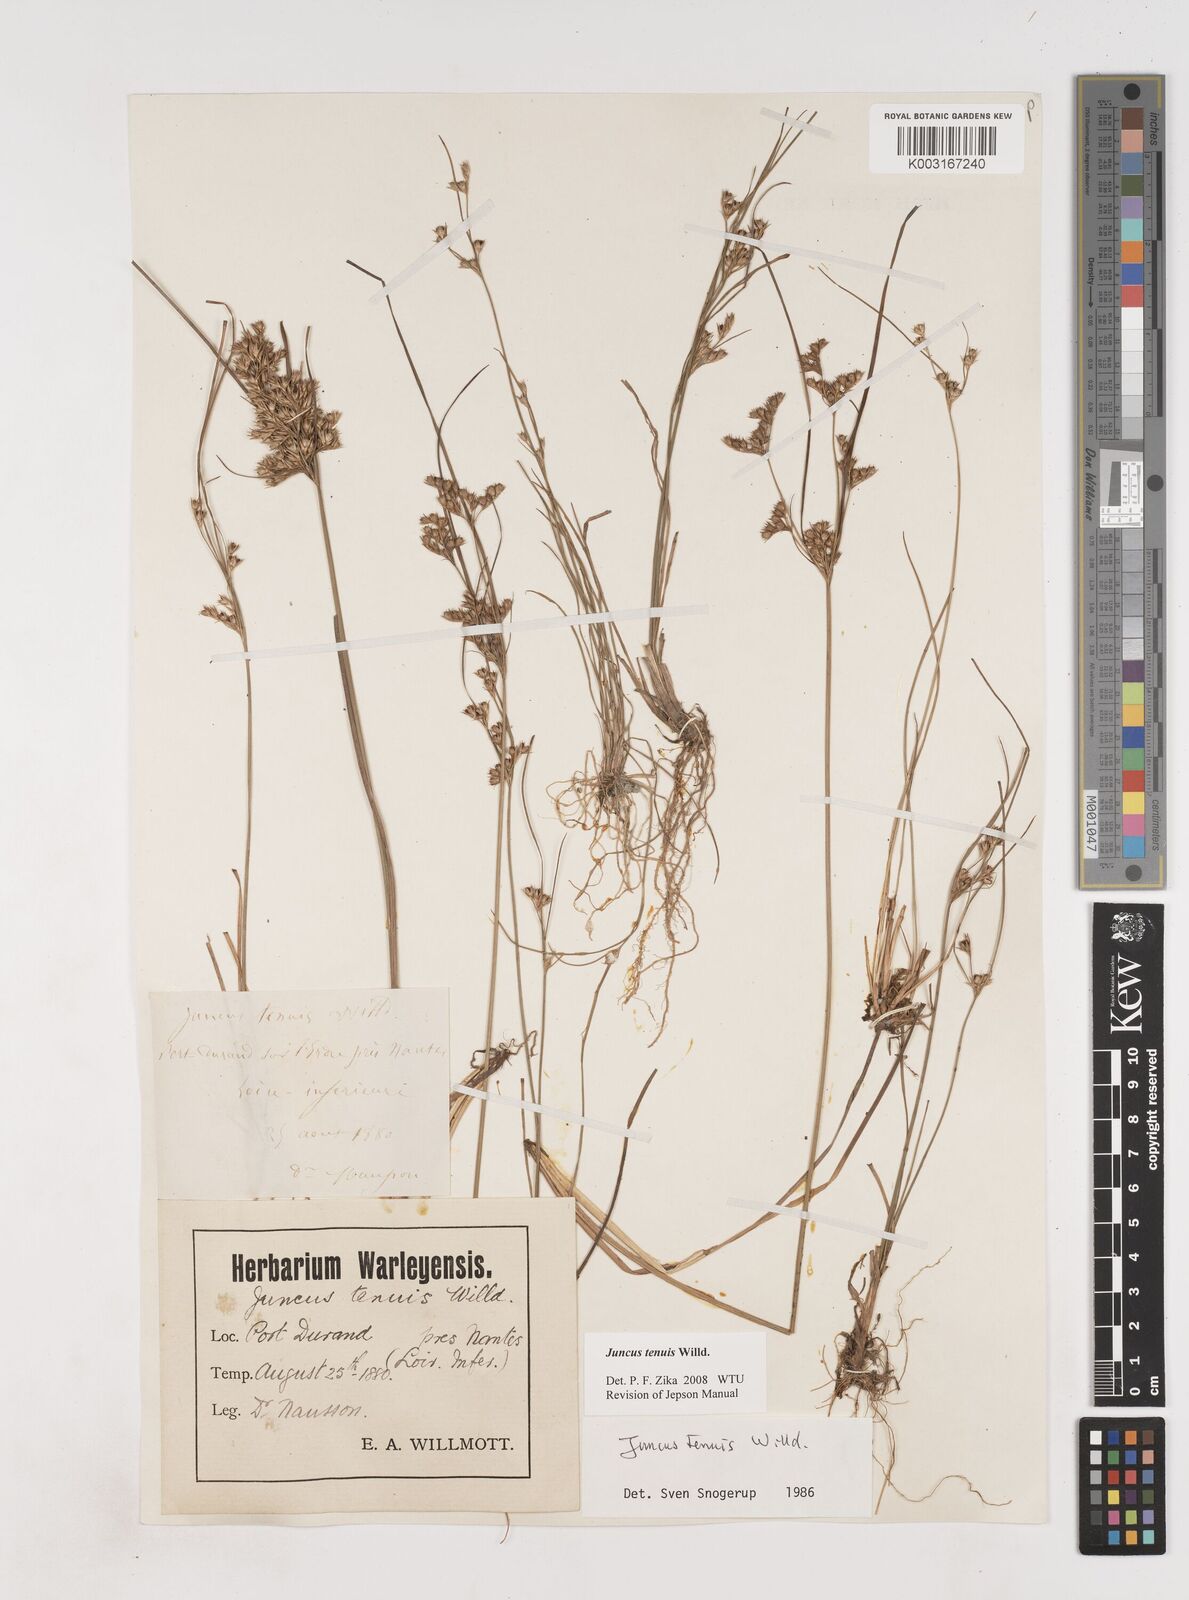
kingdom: Plantae
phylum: Tracheophyta
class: Liliopsida
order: Poales
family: Juncaceae
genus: Juncus
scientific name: Juncus tenuis
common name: Slender rush
